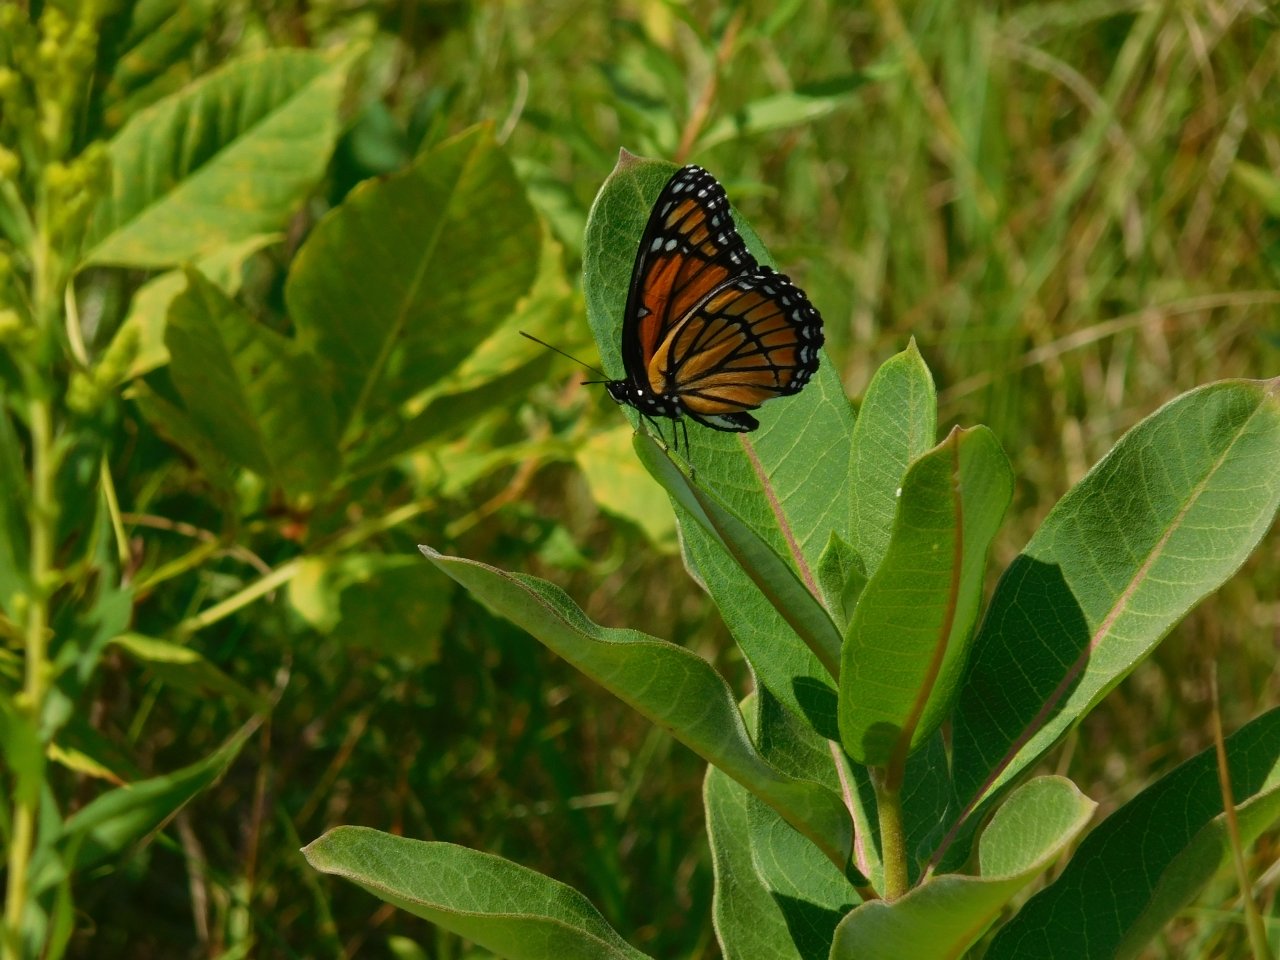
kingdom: Animalia
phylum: Arthropoda
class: Insecta
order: Lepidoptera
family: Nymphalidae
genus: Limenitis
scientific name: Limenitis archippus
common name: Viceroy
